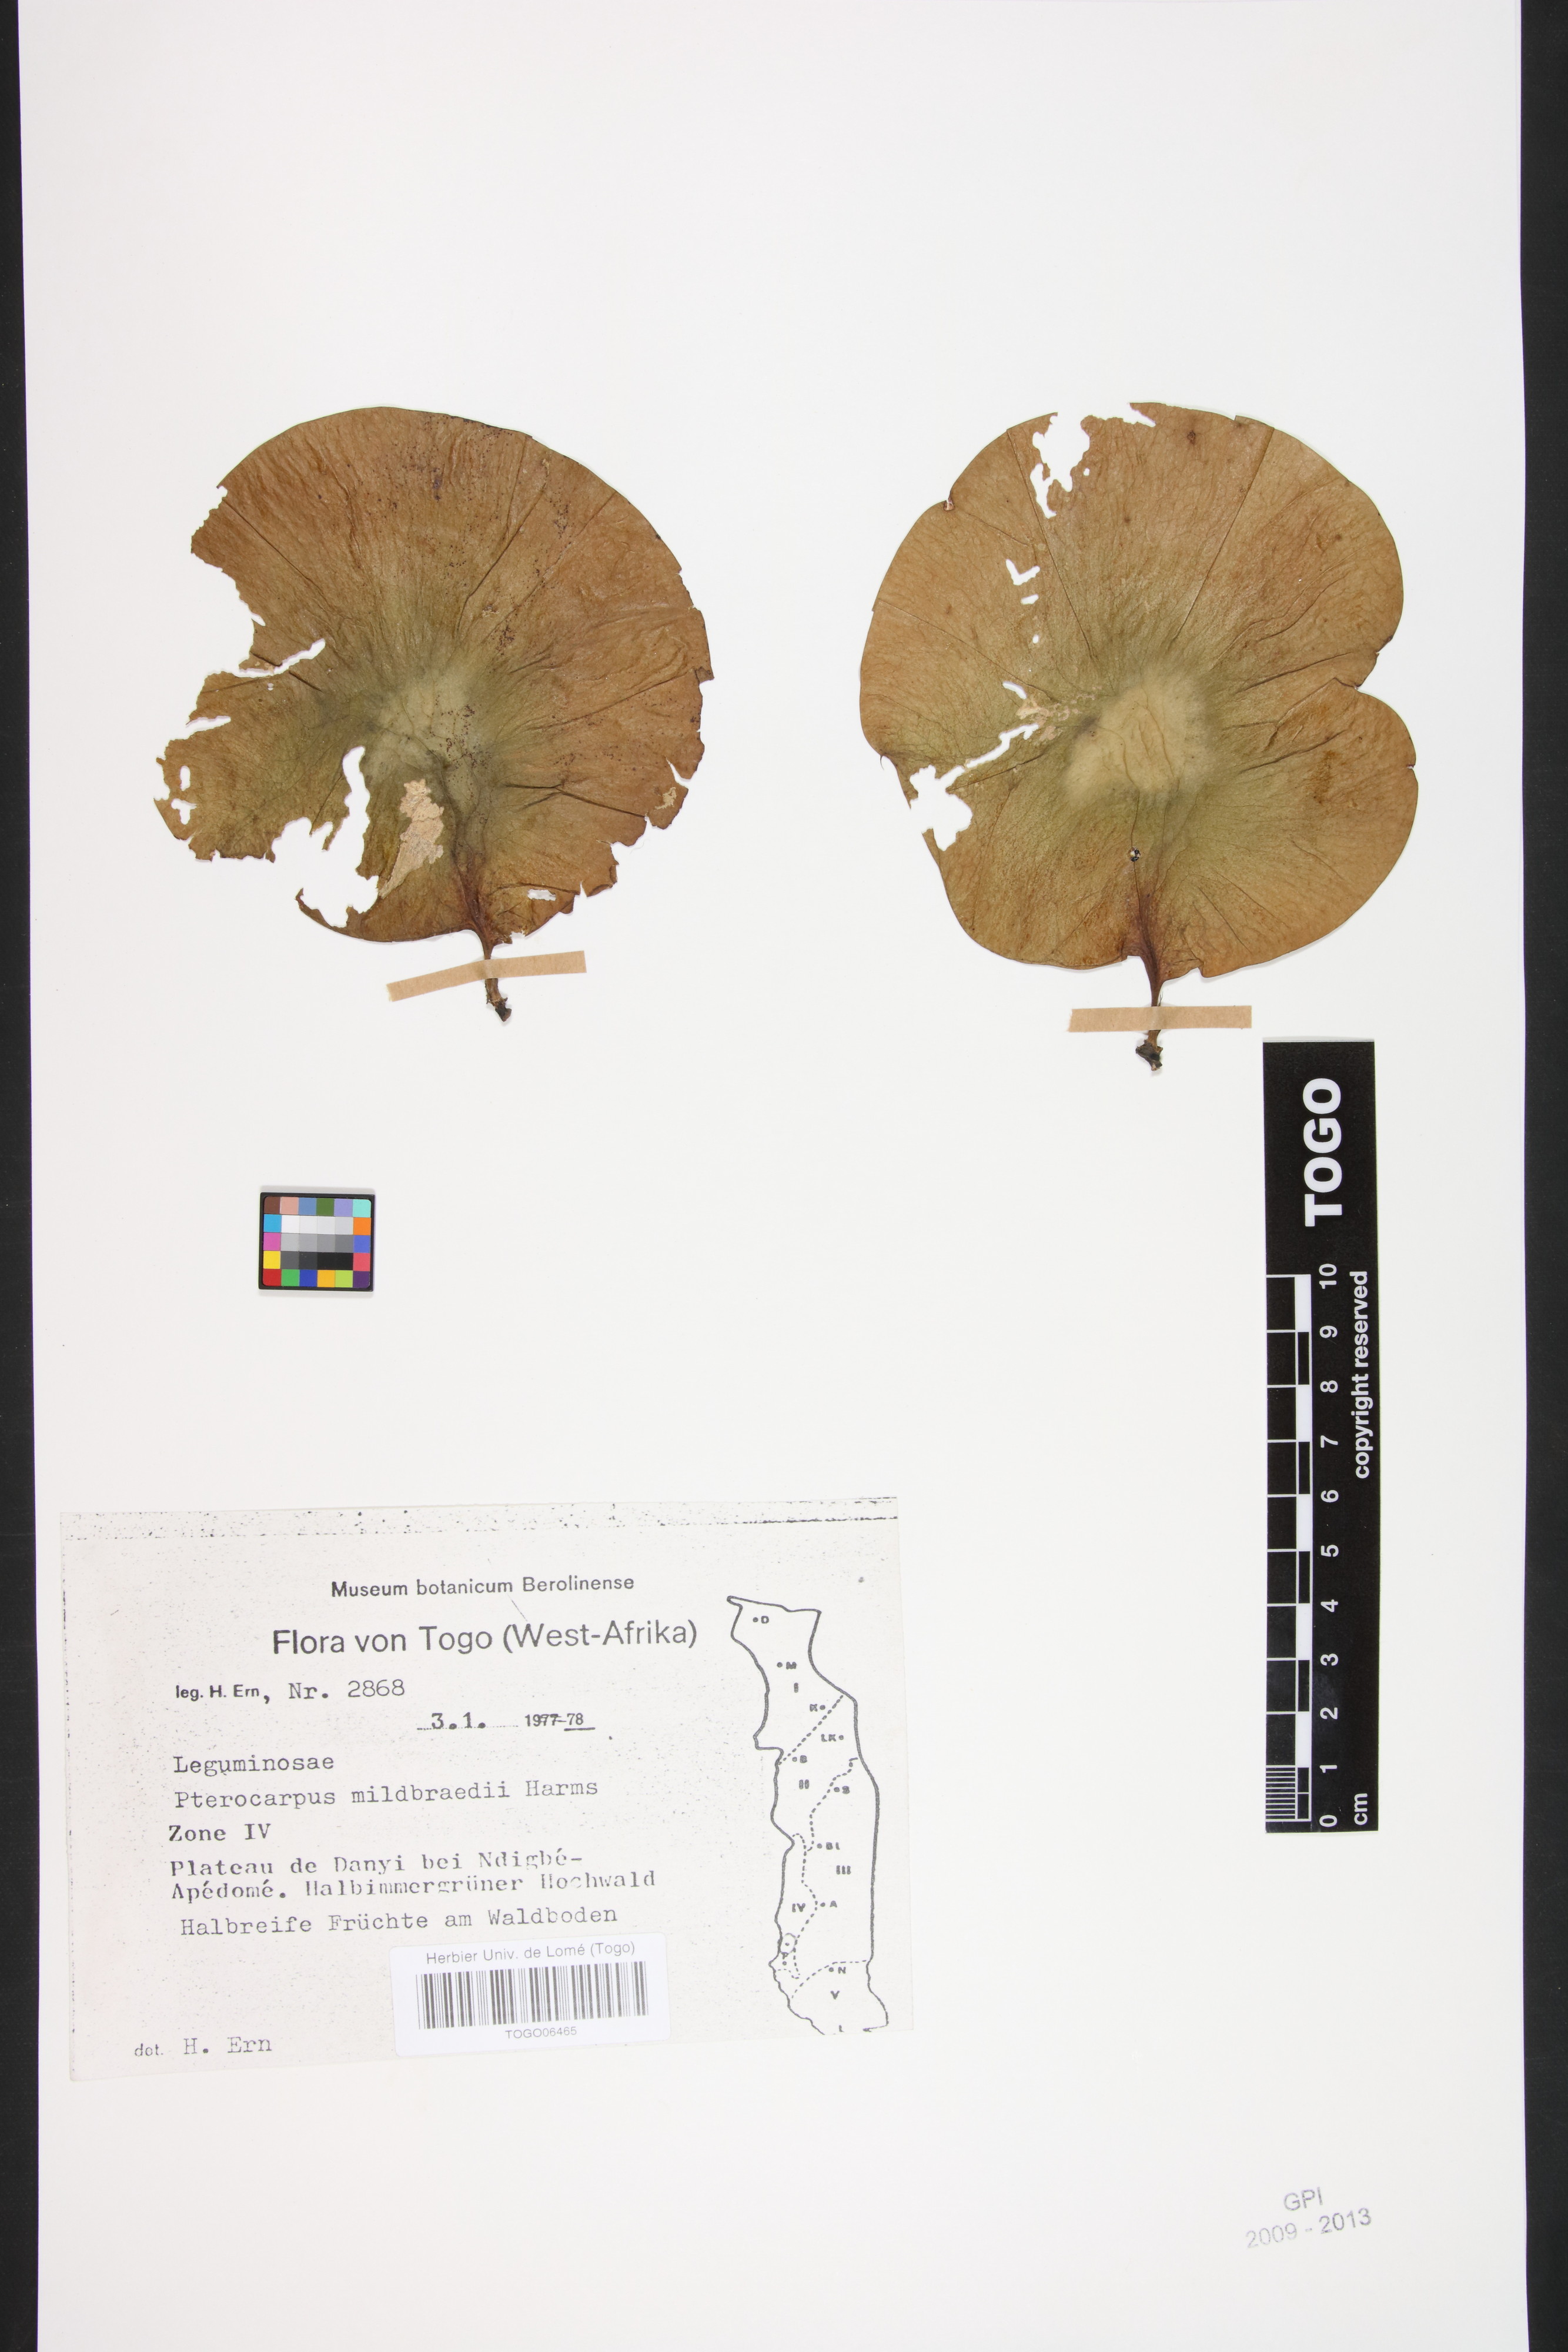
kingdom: Plantae
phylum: Tracheophyta
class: Magnoliopsida
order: Fabales
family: Fabaceae
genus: Pterocarpus
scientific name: Pterocarpus mildbraedii
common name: White padouk
